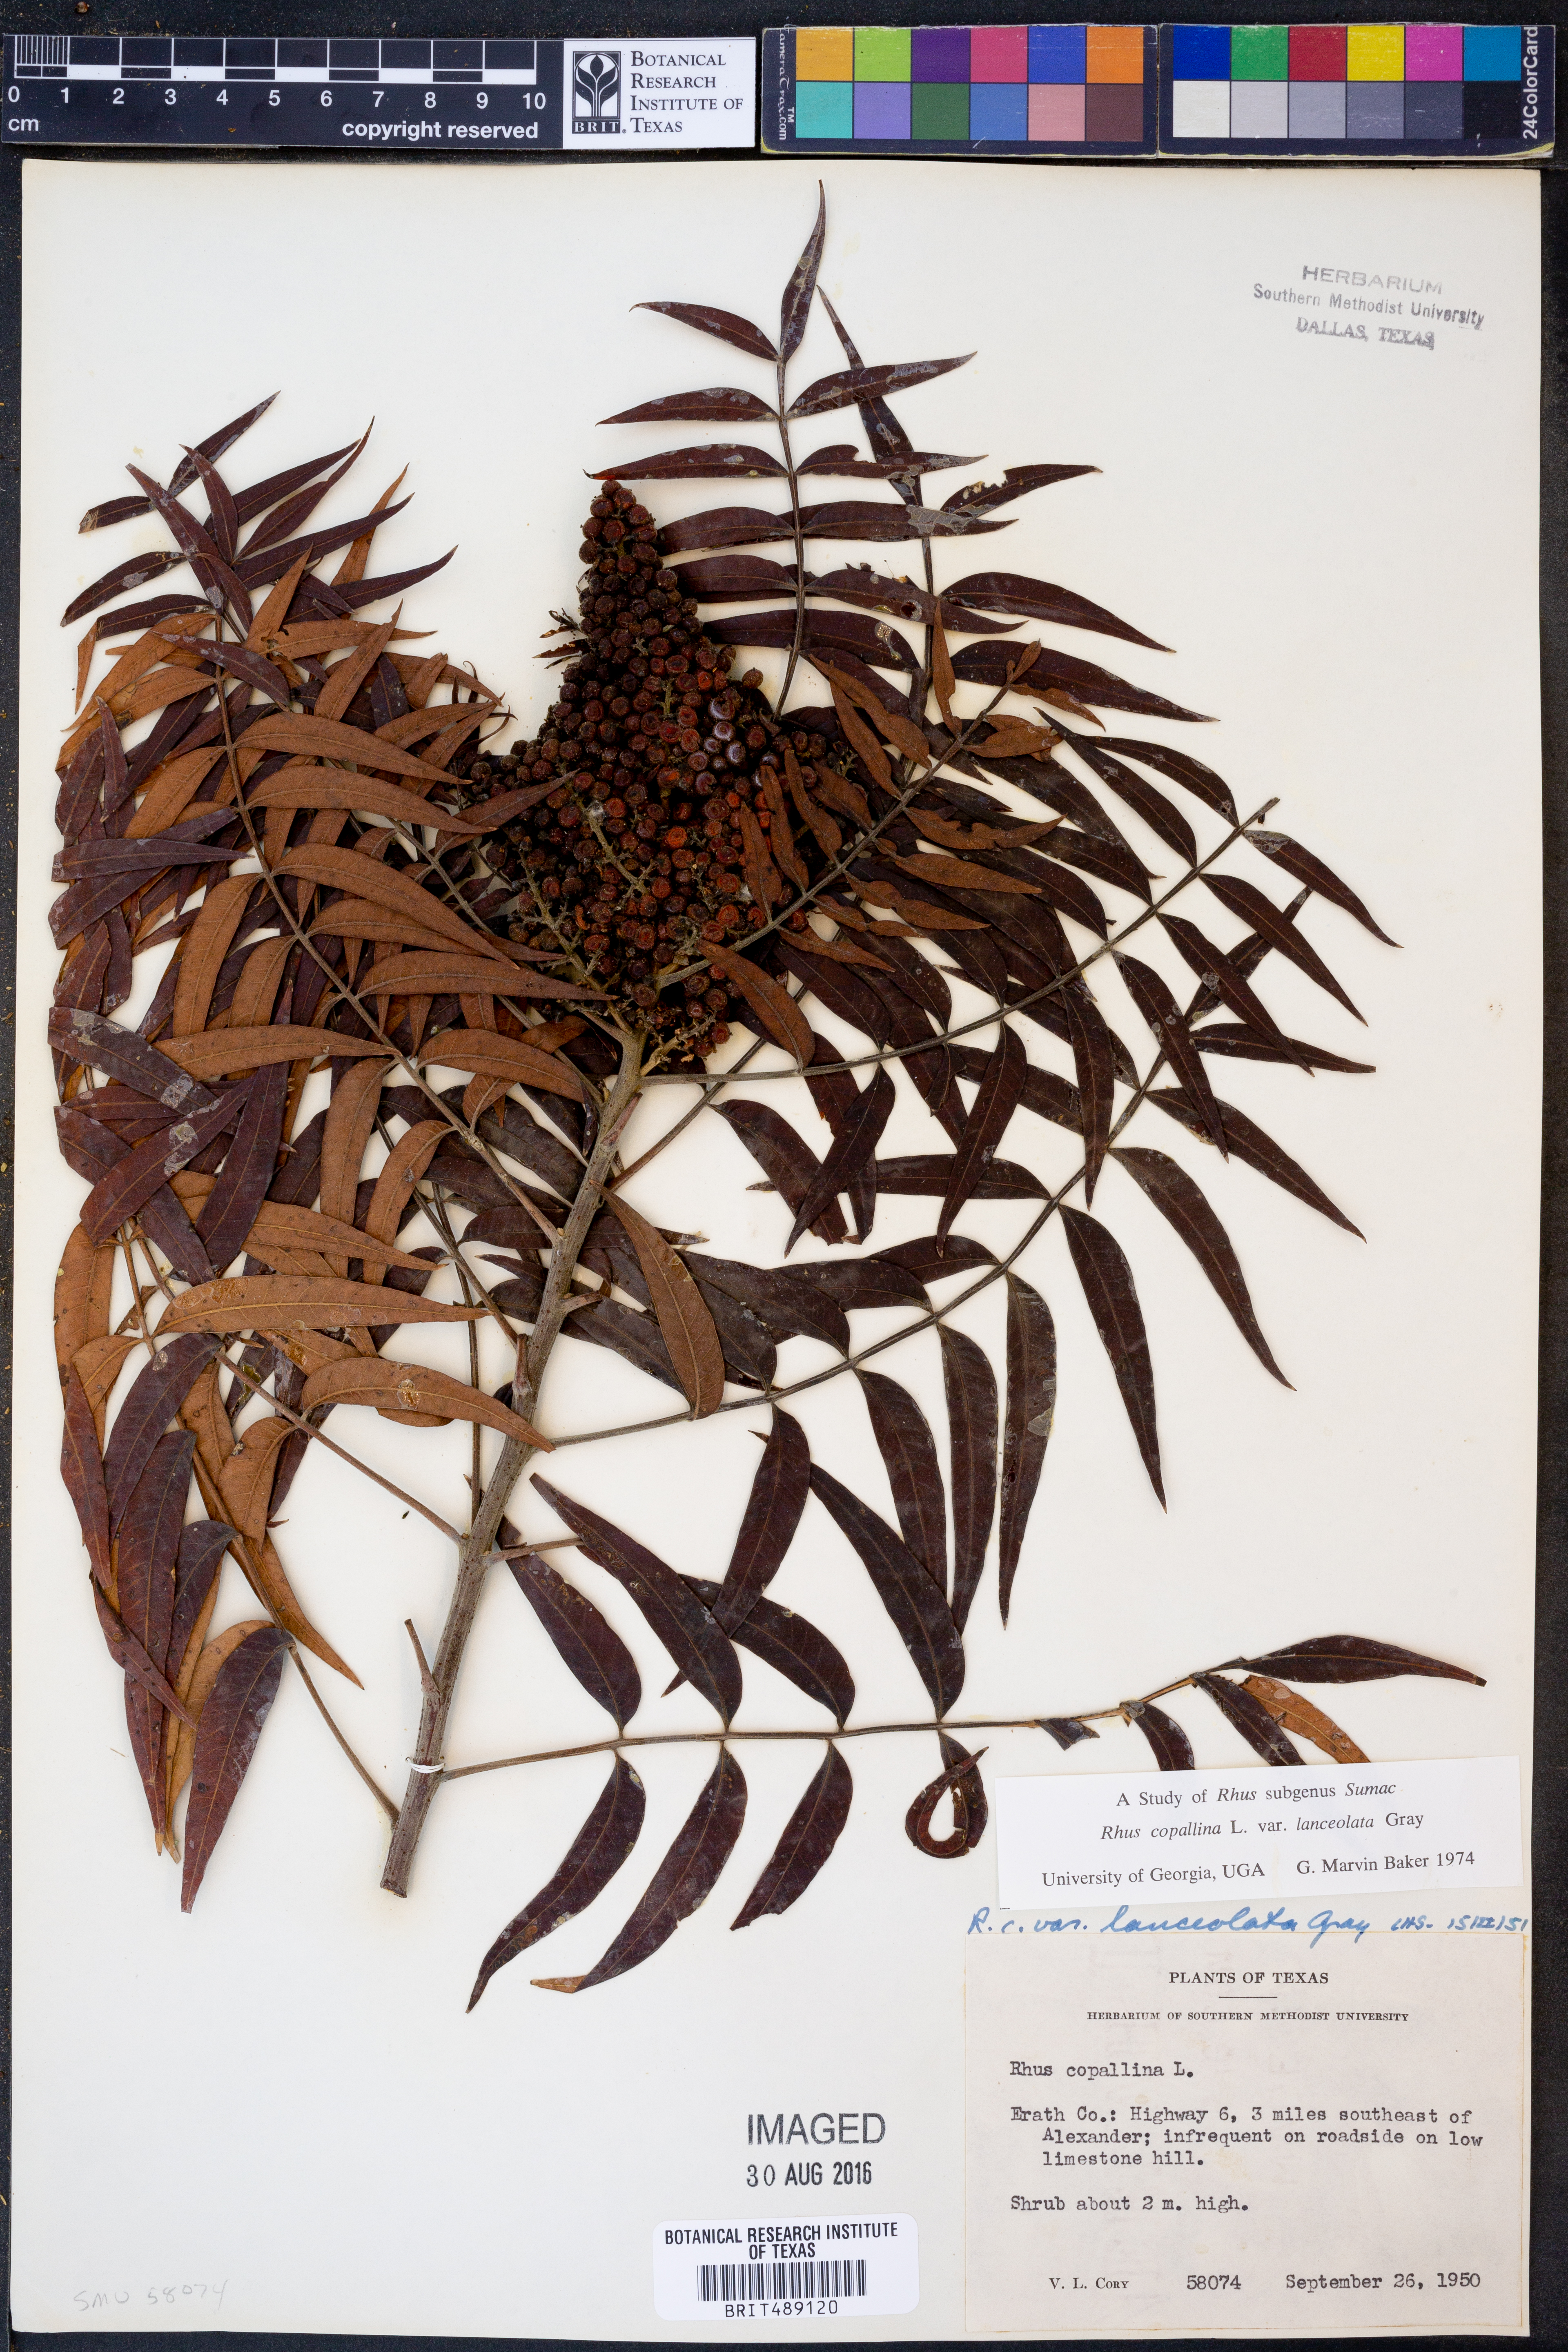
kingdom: Plantae
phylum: Tracheophyta
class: Magnoliopsida
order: Sapindales
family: Anacardiaceae
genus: Rhus
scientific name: Rhus lanceolata
